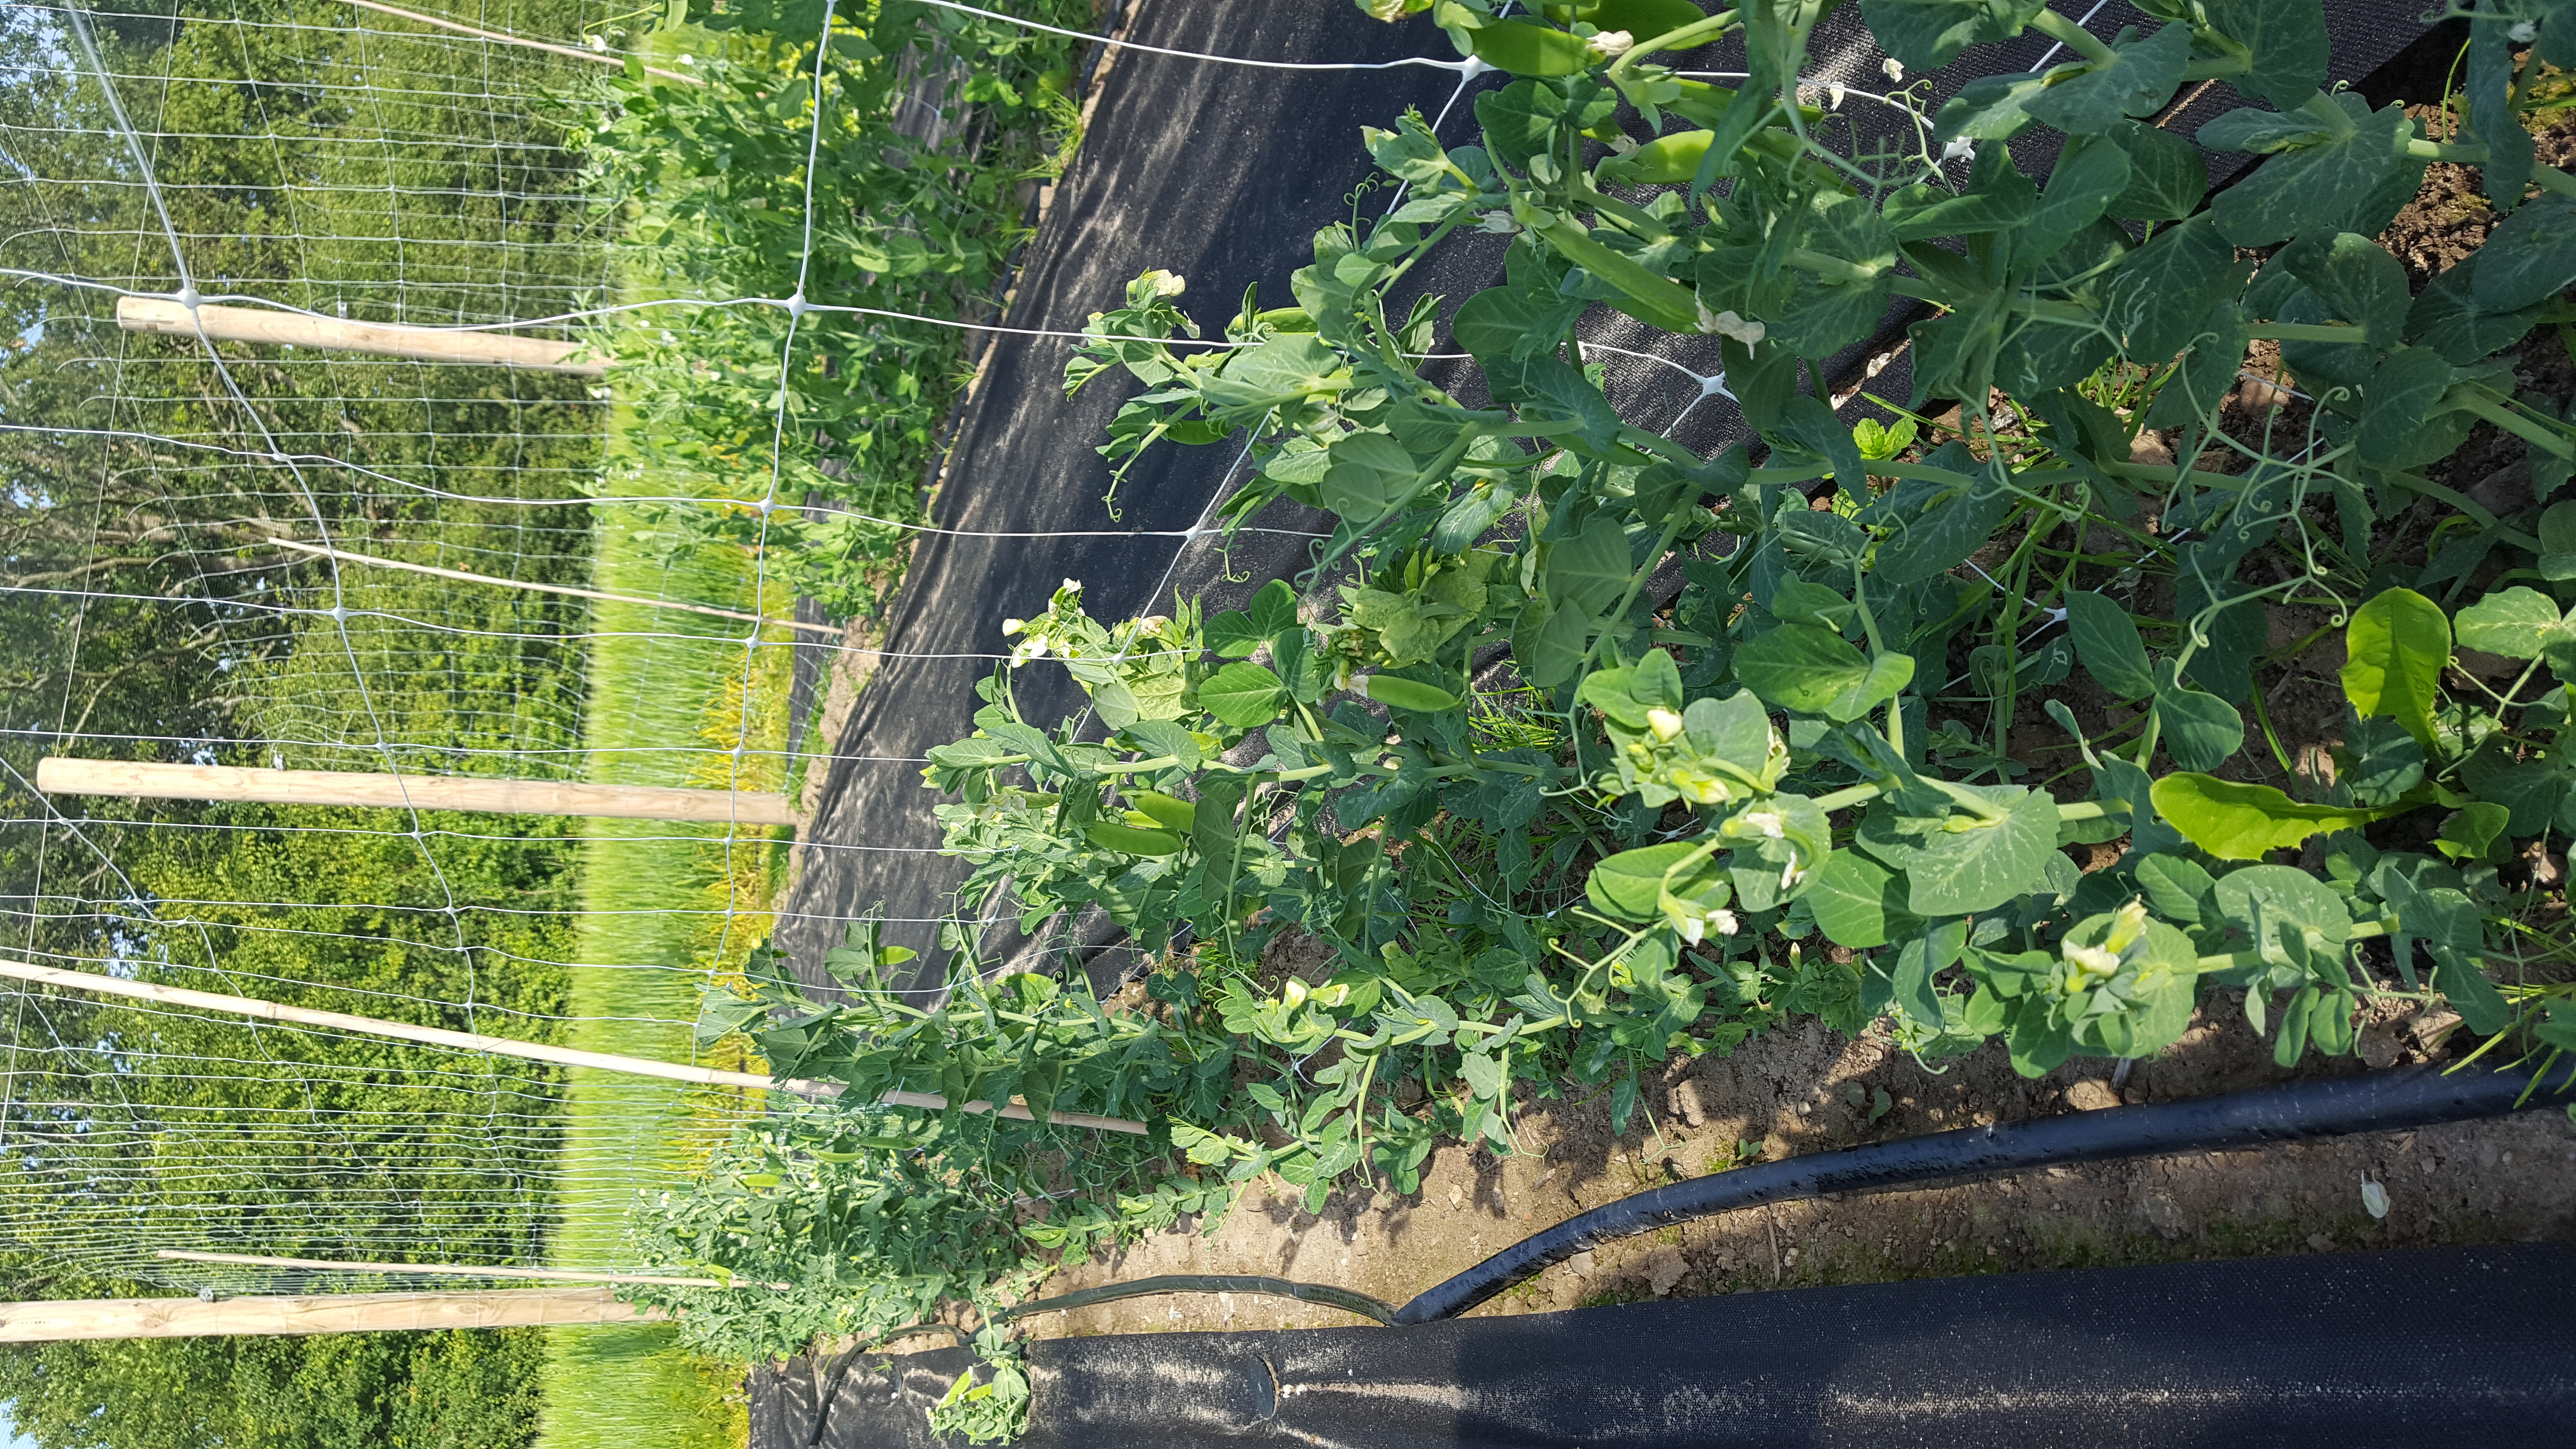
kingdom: Plantae
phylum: Tracheophyta
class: Magnoliopsida
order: Fabales
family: Fabaceae
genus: Lathyrus
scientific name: Lathyrus oleraceus
